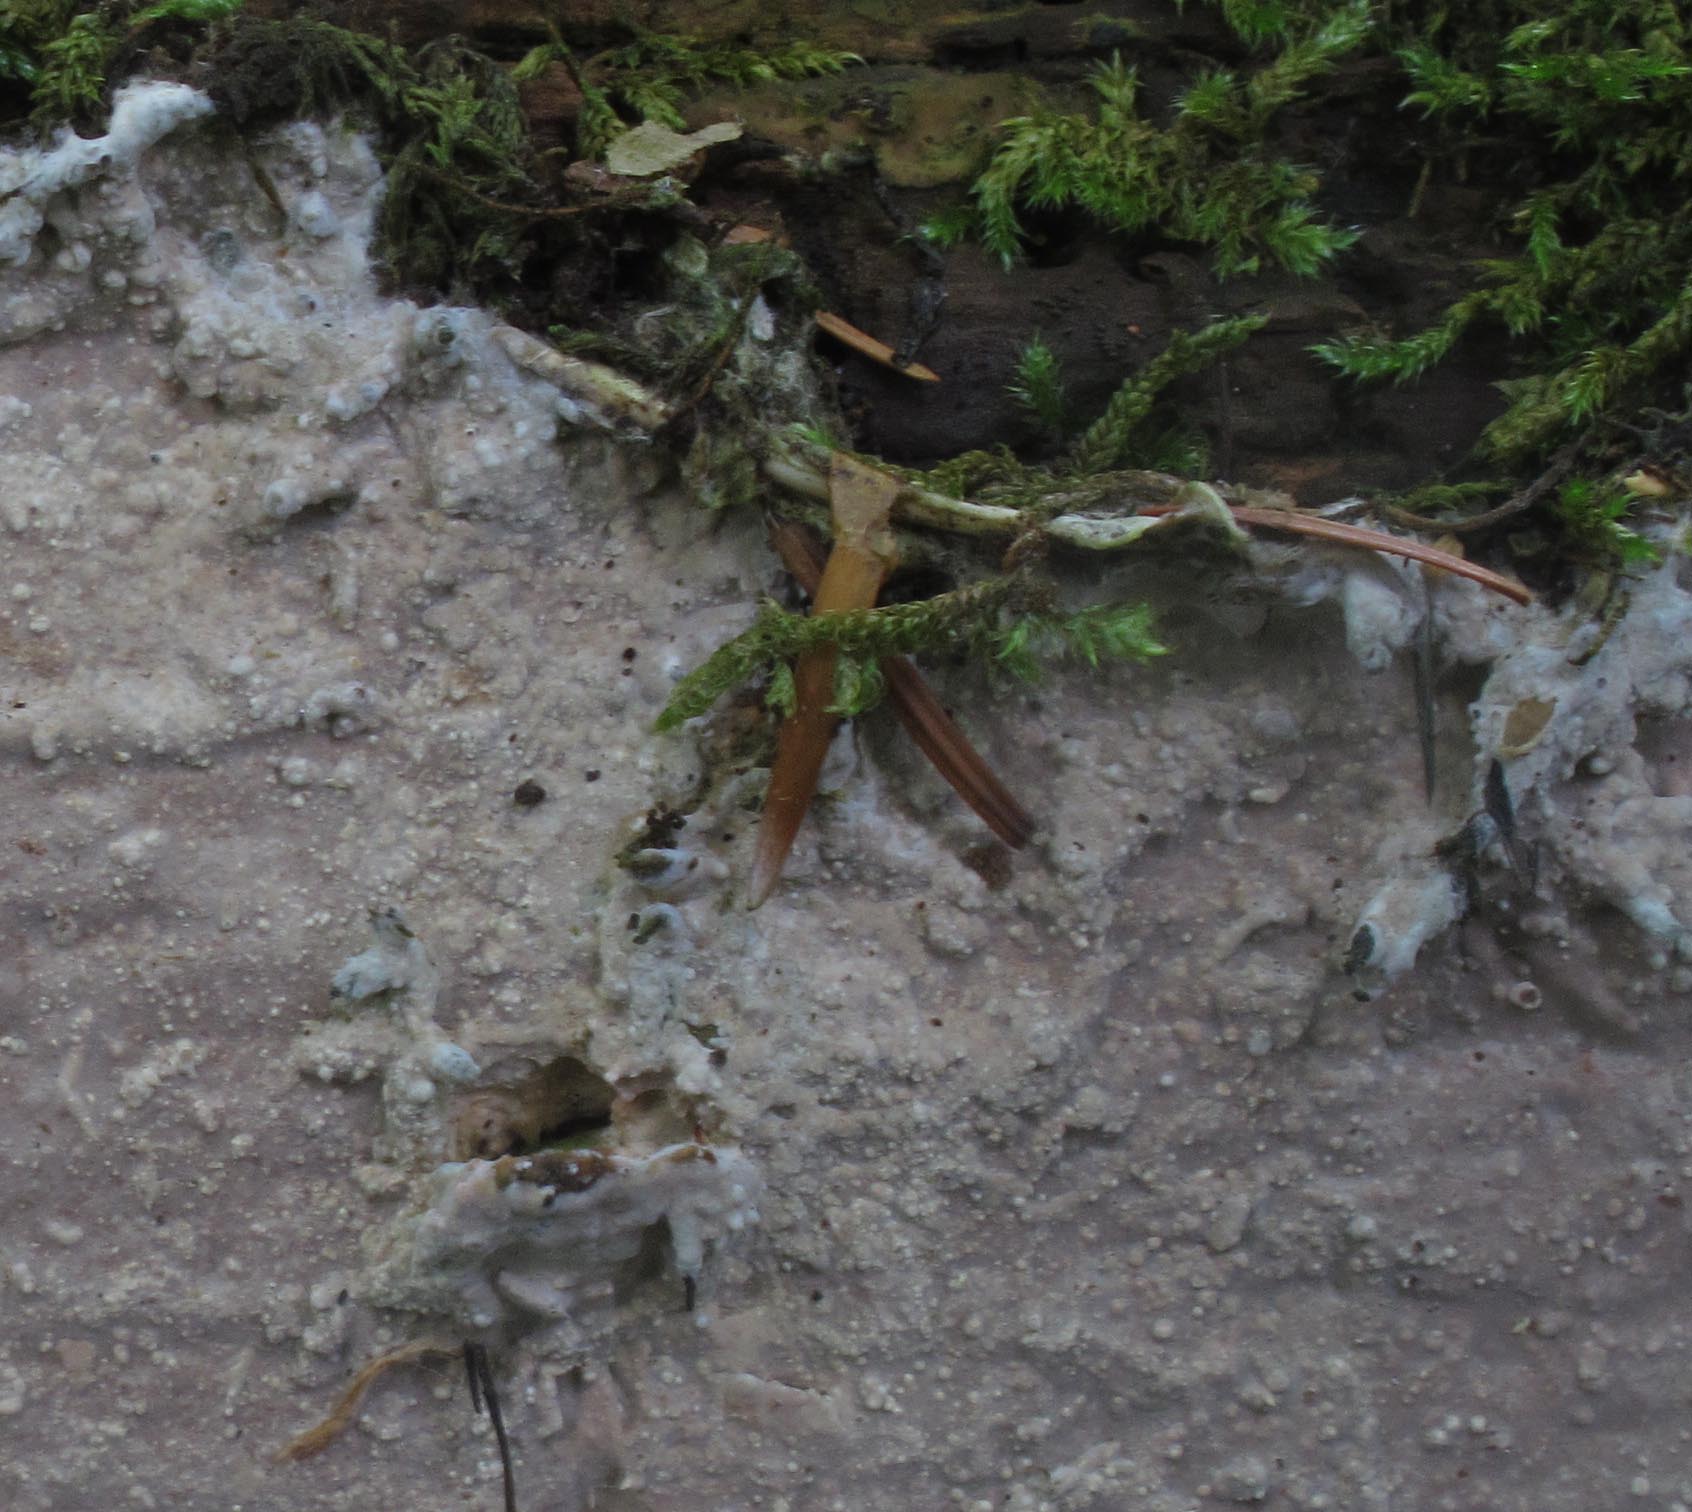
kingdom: Fungi
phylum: Basidiomycota
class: Agaricomycetes
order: Russulales
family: Peniophoraceae
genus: Scytinostroma
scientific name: Scytinostroma hemidichophyticum
